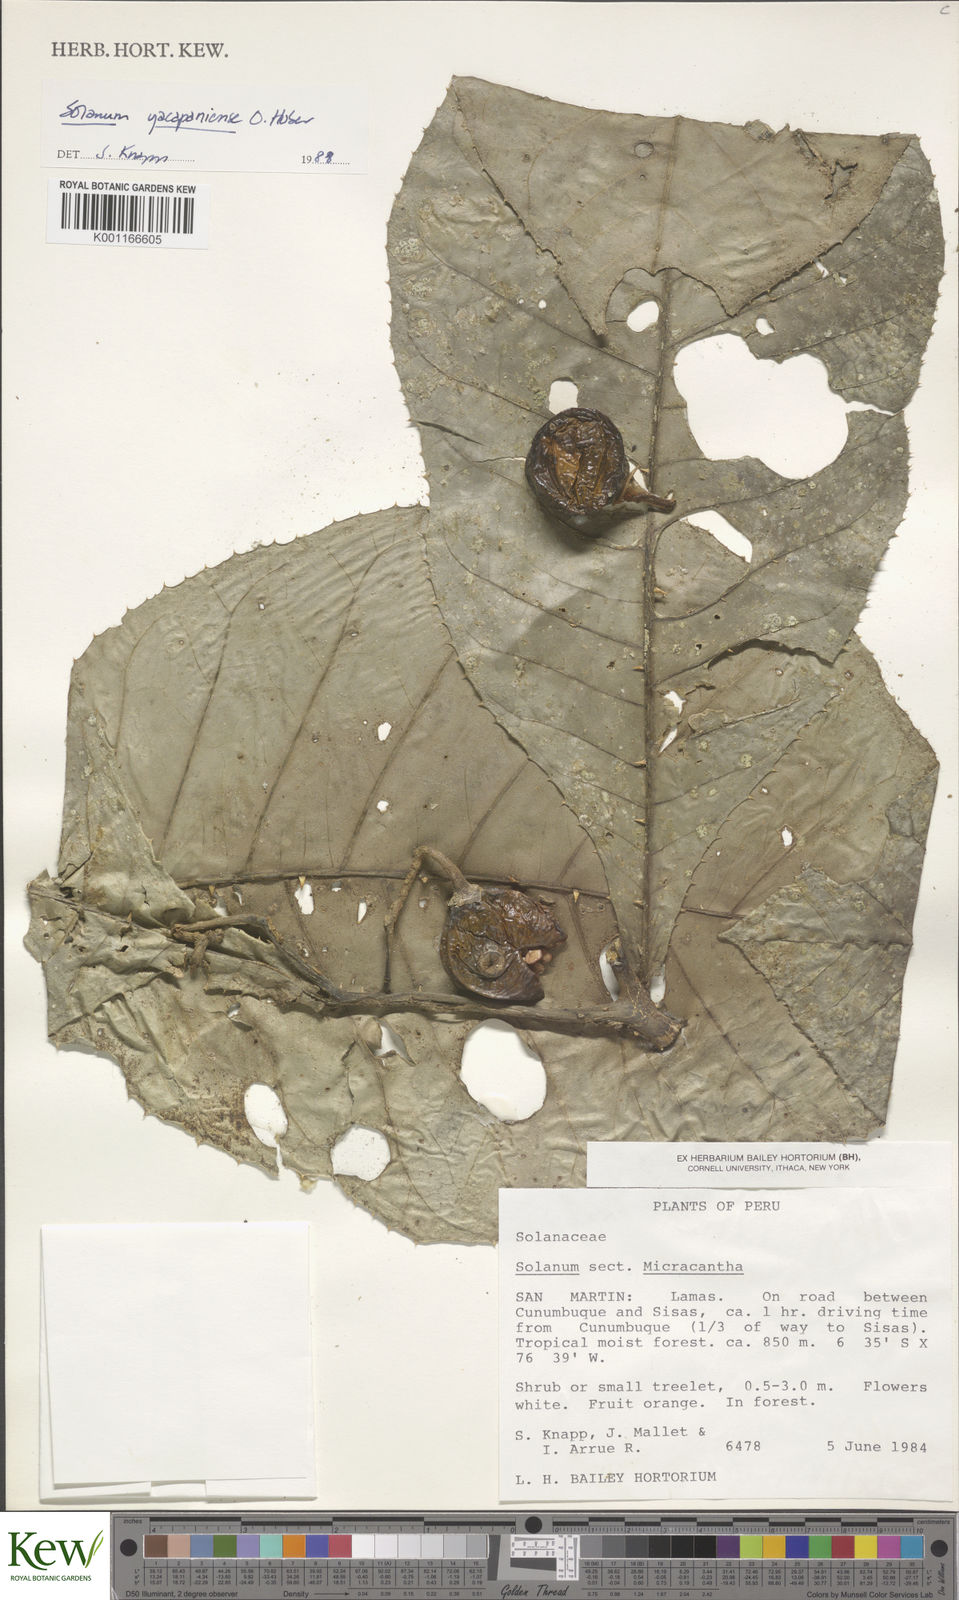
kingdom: Plantae
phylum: Tracheophyta
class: Magnoliopsida
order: Solanales
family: Solanaceae
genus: Solanum
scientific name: Solanum
